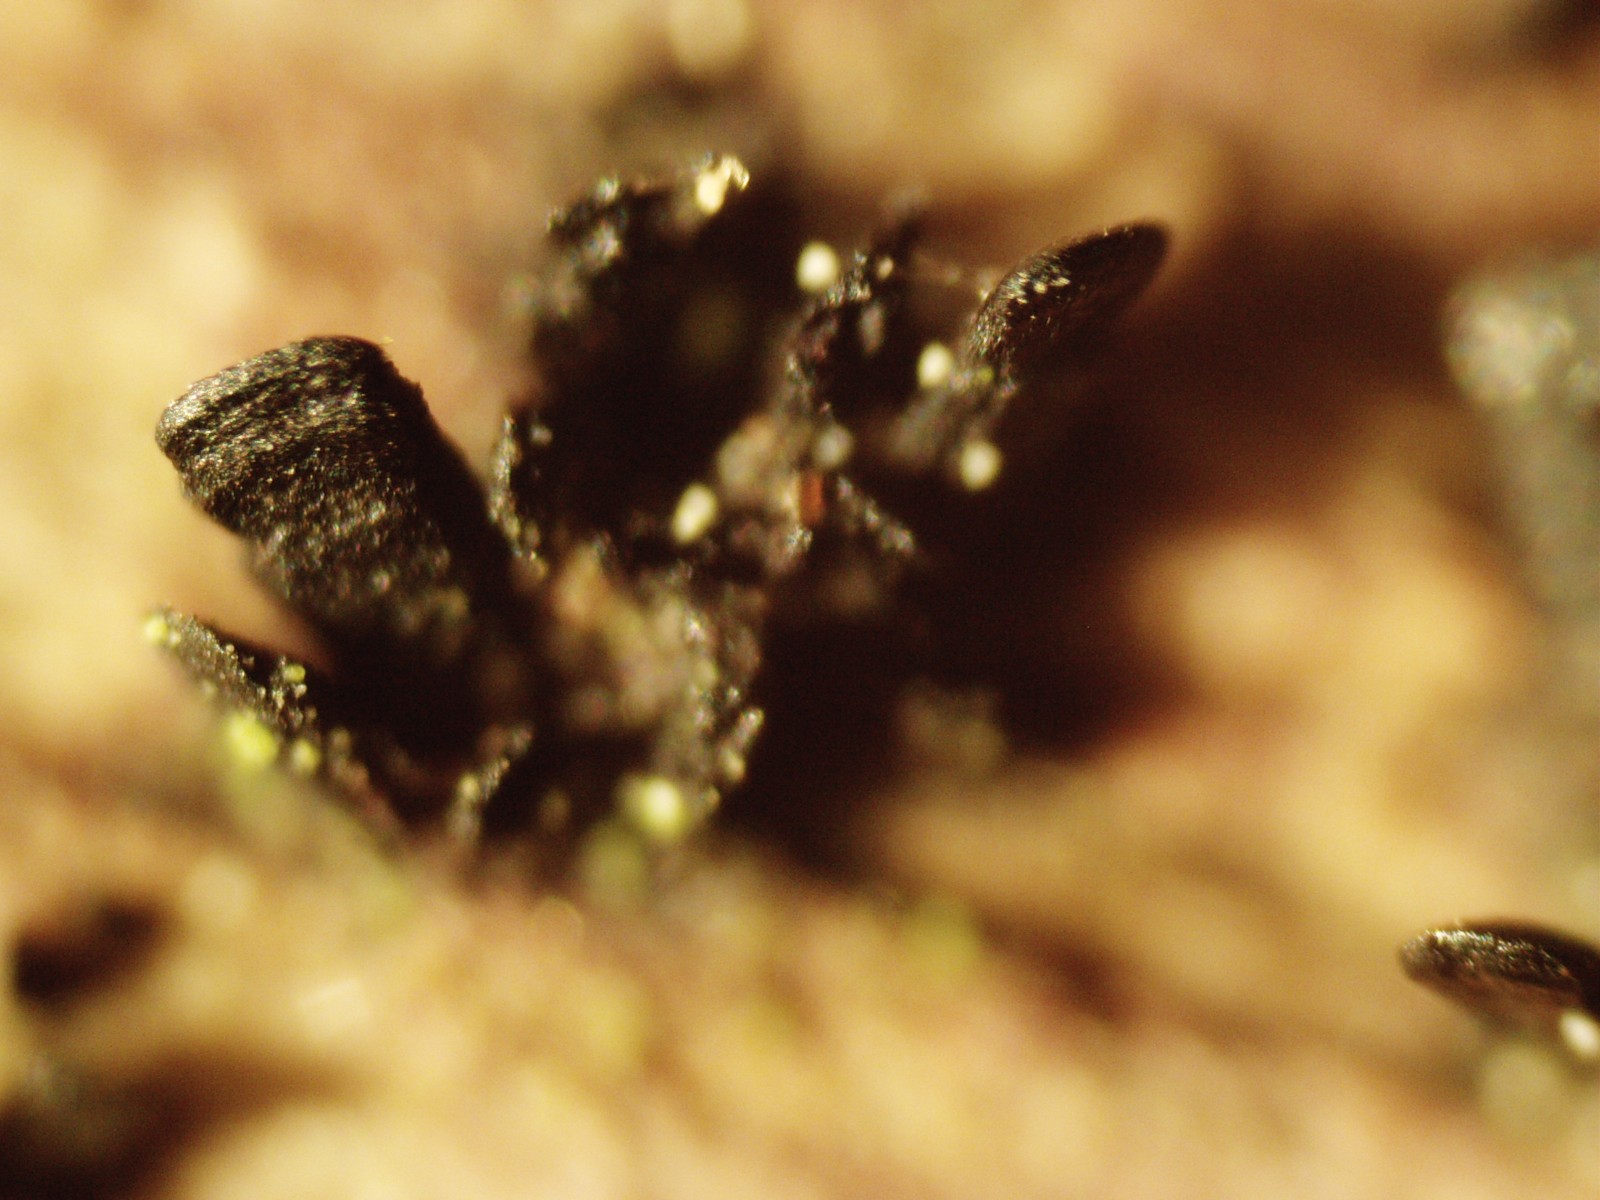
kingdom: Fungi
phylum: Ascomycota
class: Eurotiomycetes
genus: Glyphium
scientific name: Glyphium elatum
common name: kuløkse
